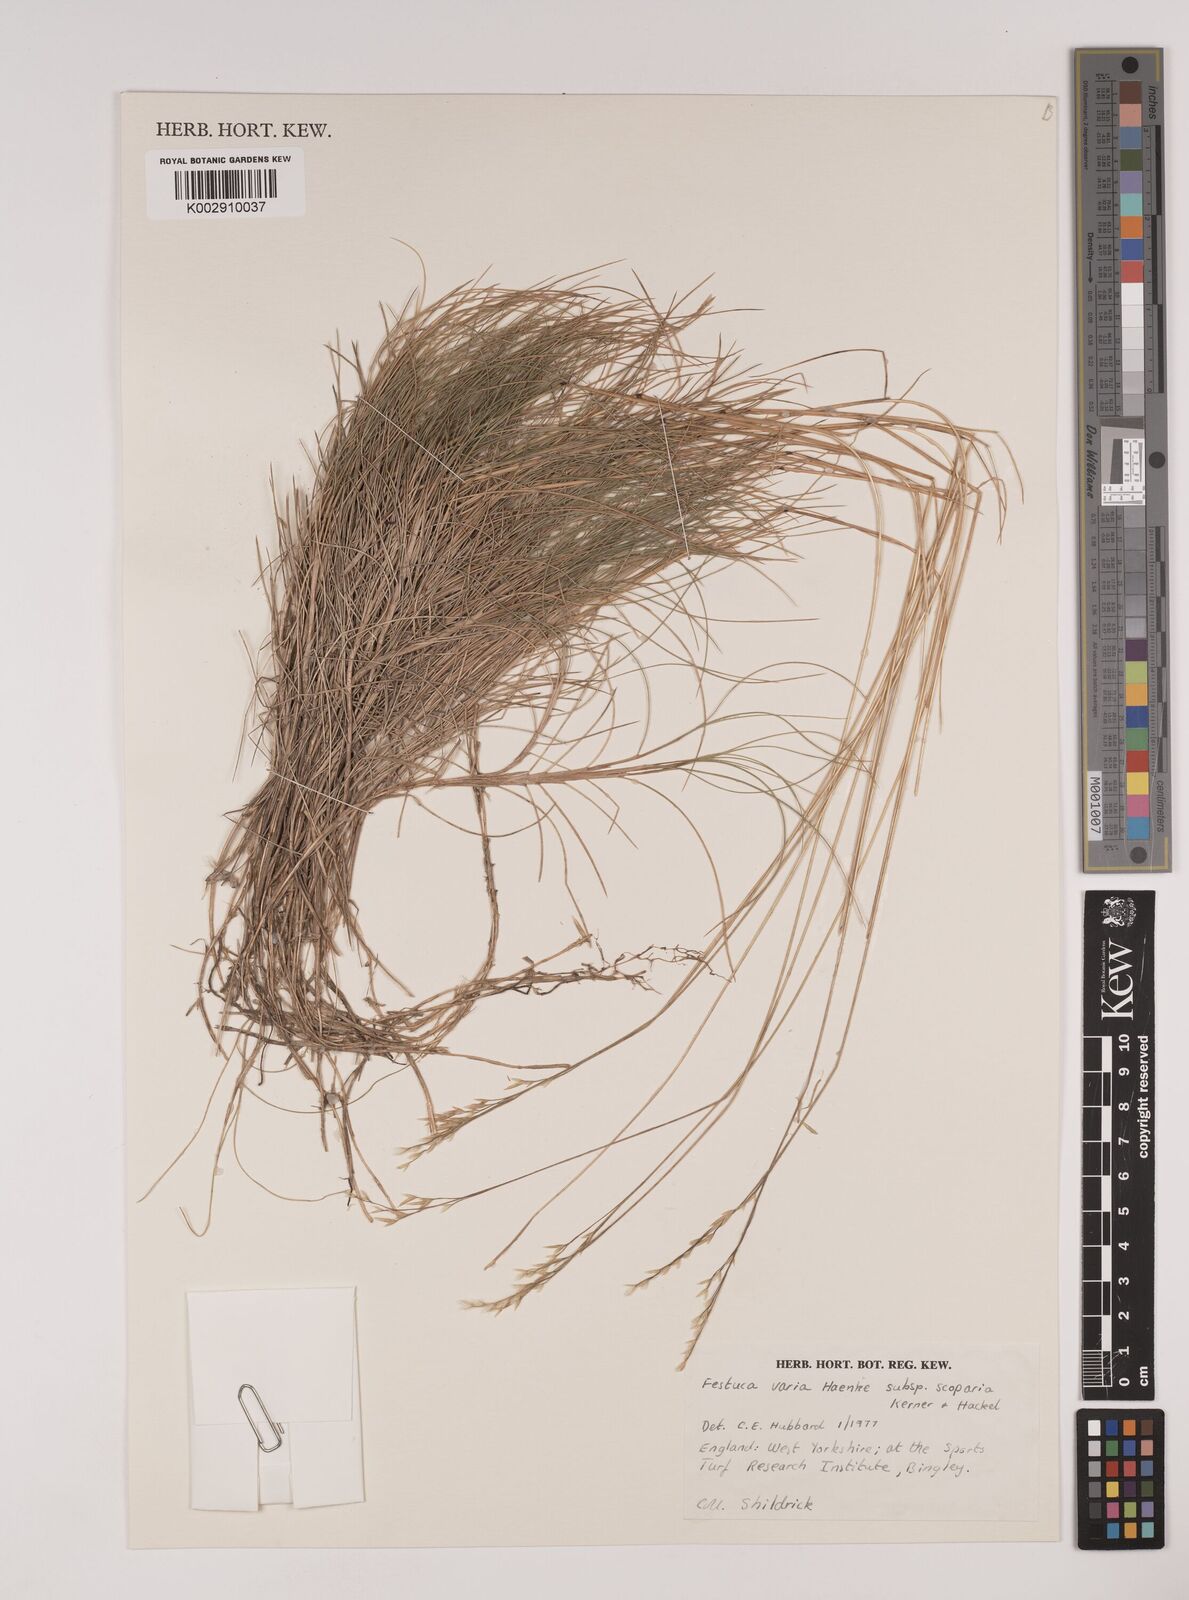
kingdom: Plantae
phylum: Tracheophyta
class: Liliopsida
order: Poales
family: Poaceae
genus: Festuca
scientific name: Festuca gautieri
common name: Spiky fescue
